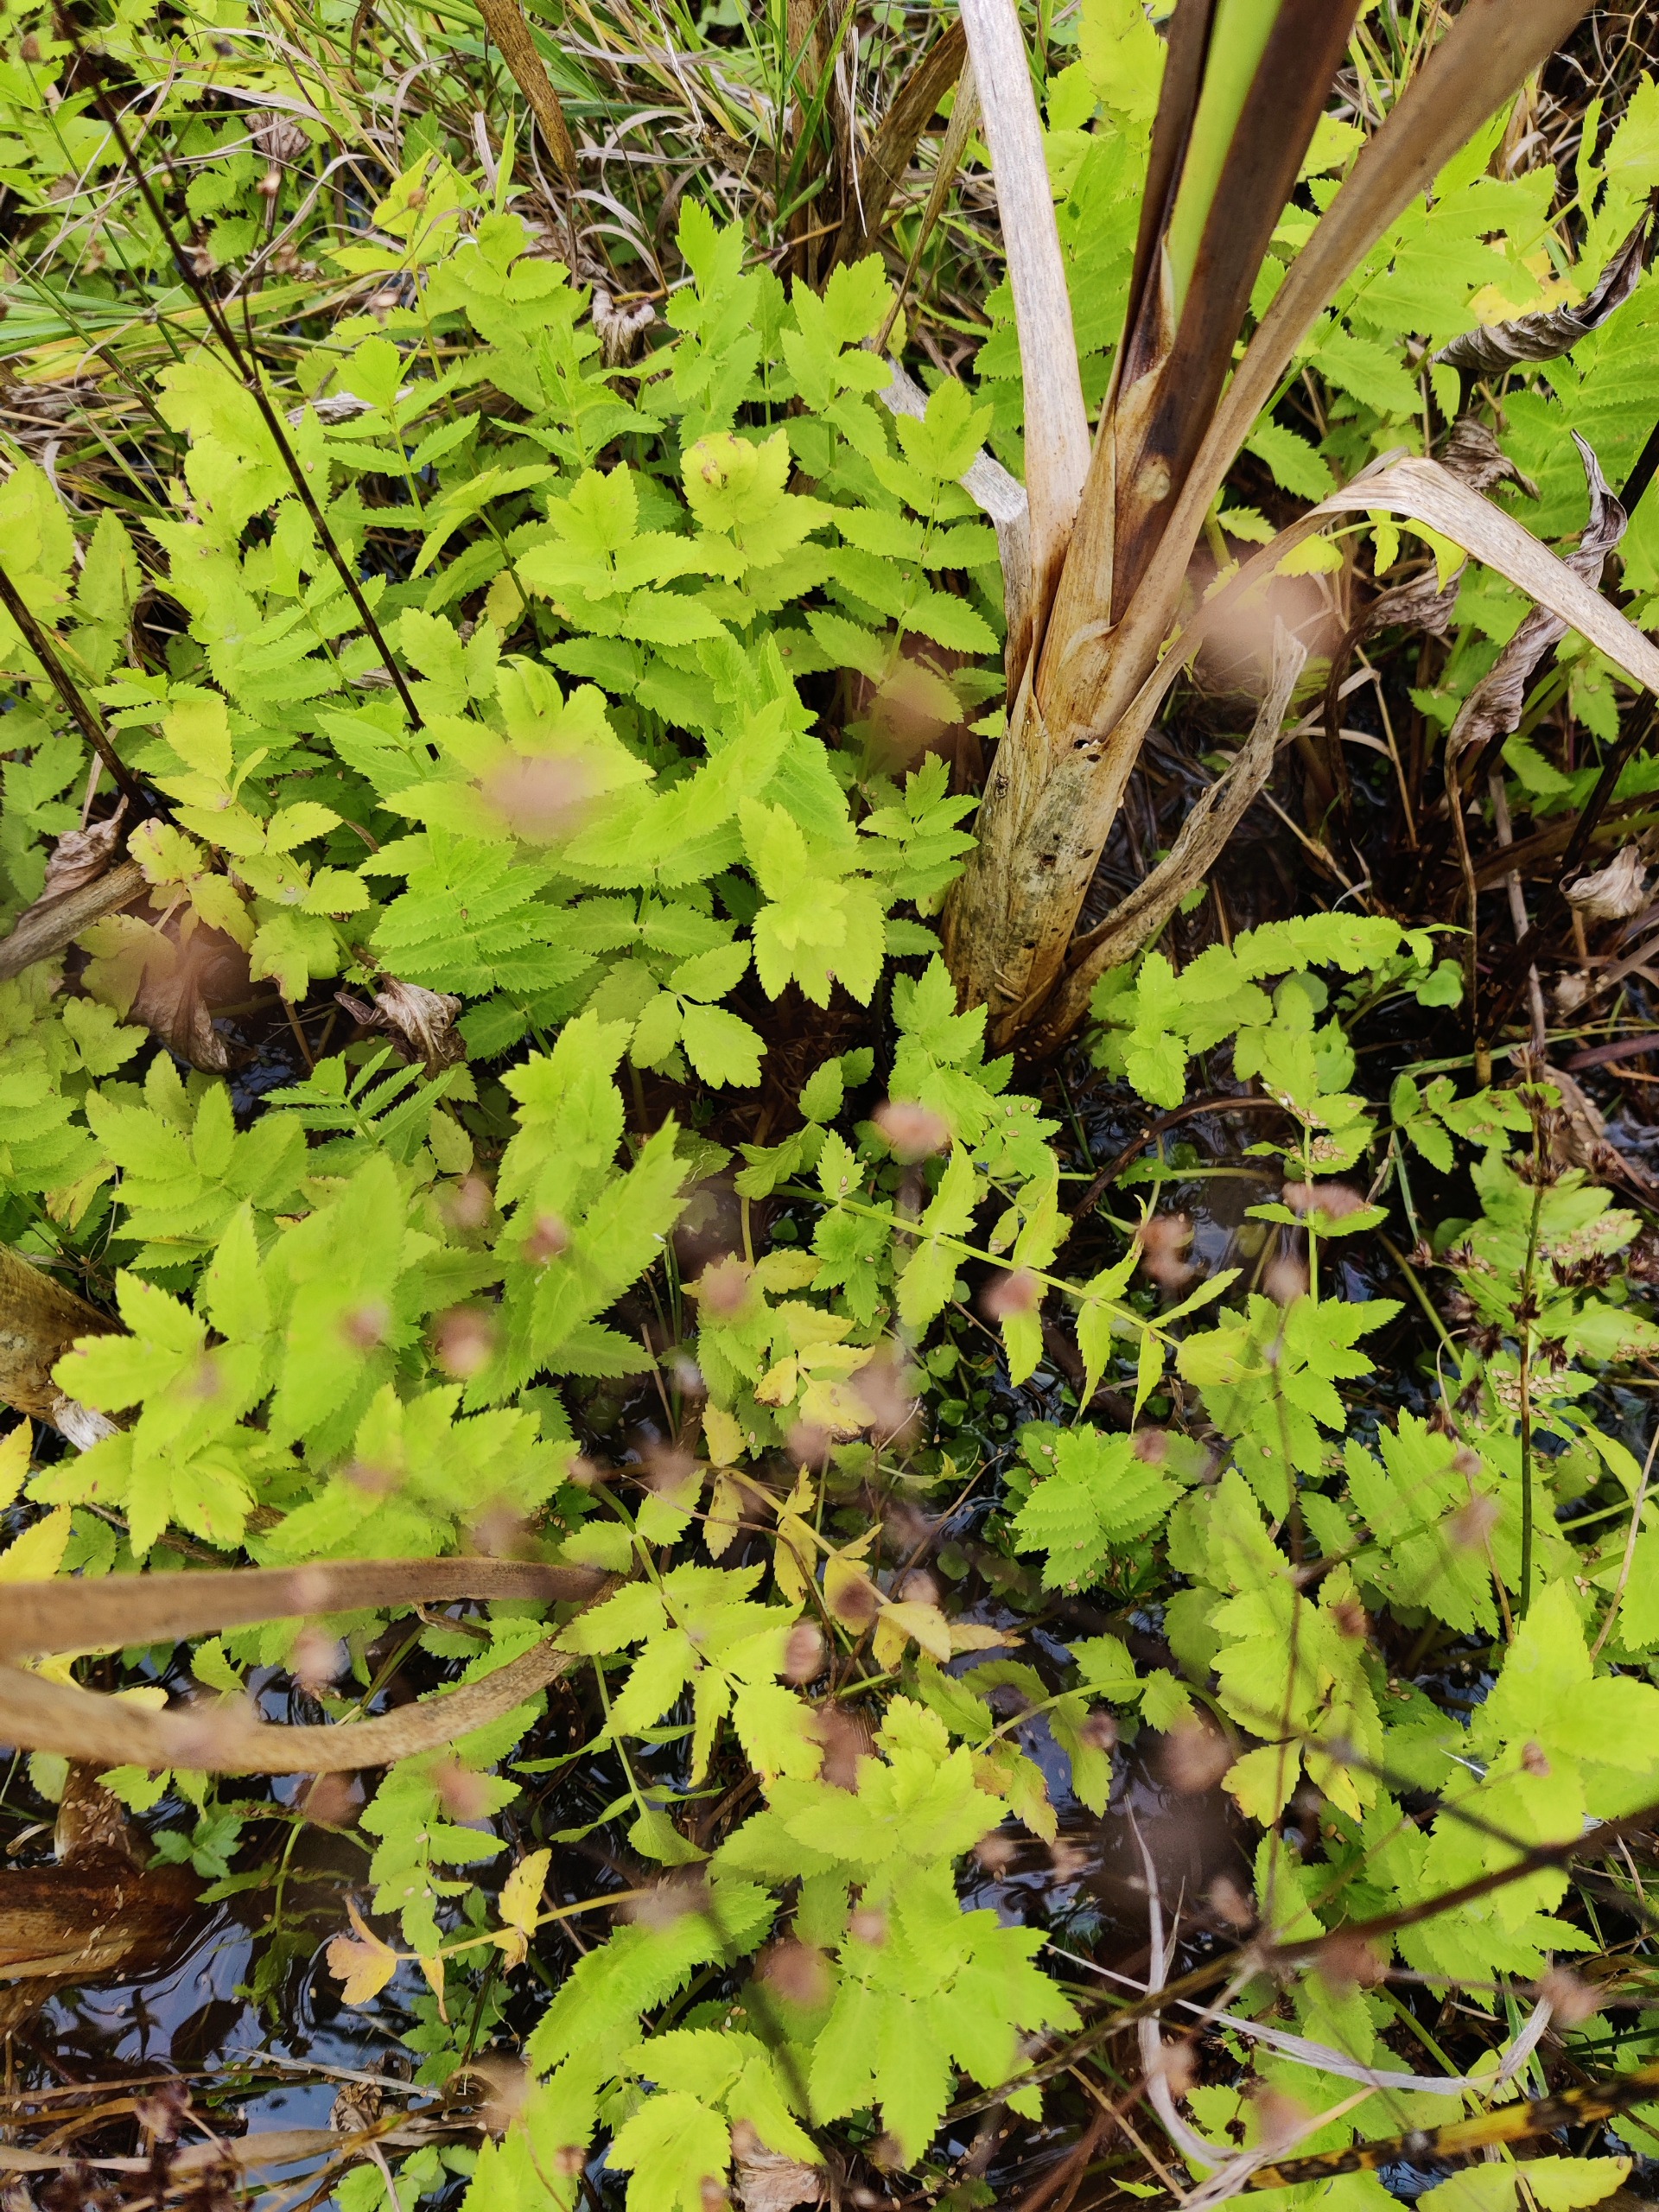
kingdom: Plantae
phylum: Tracheophyta
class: Magnoliopsida
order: Apiales
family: Apiaceae
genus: Berula
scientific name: Berula erecta
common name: Sideskærm
